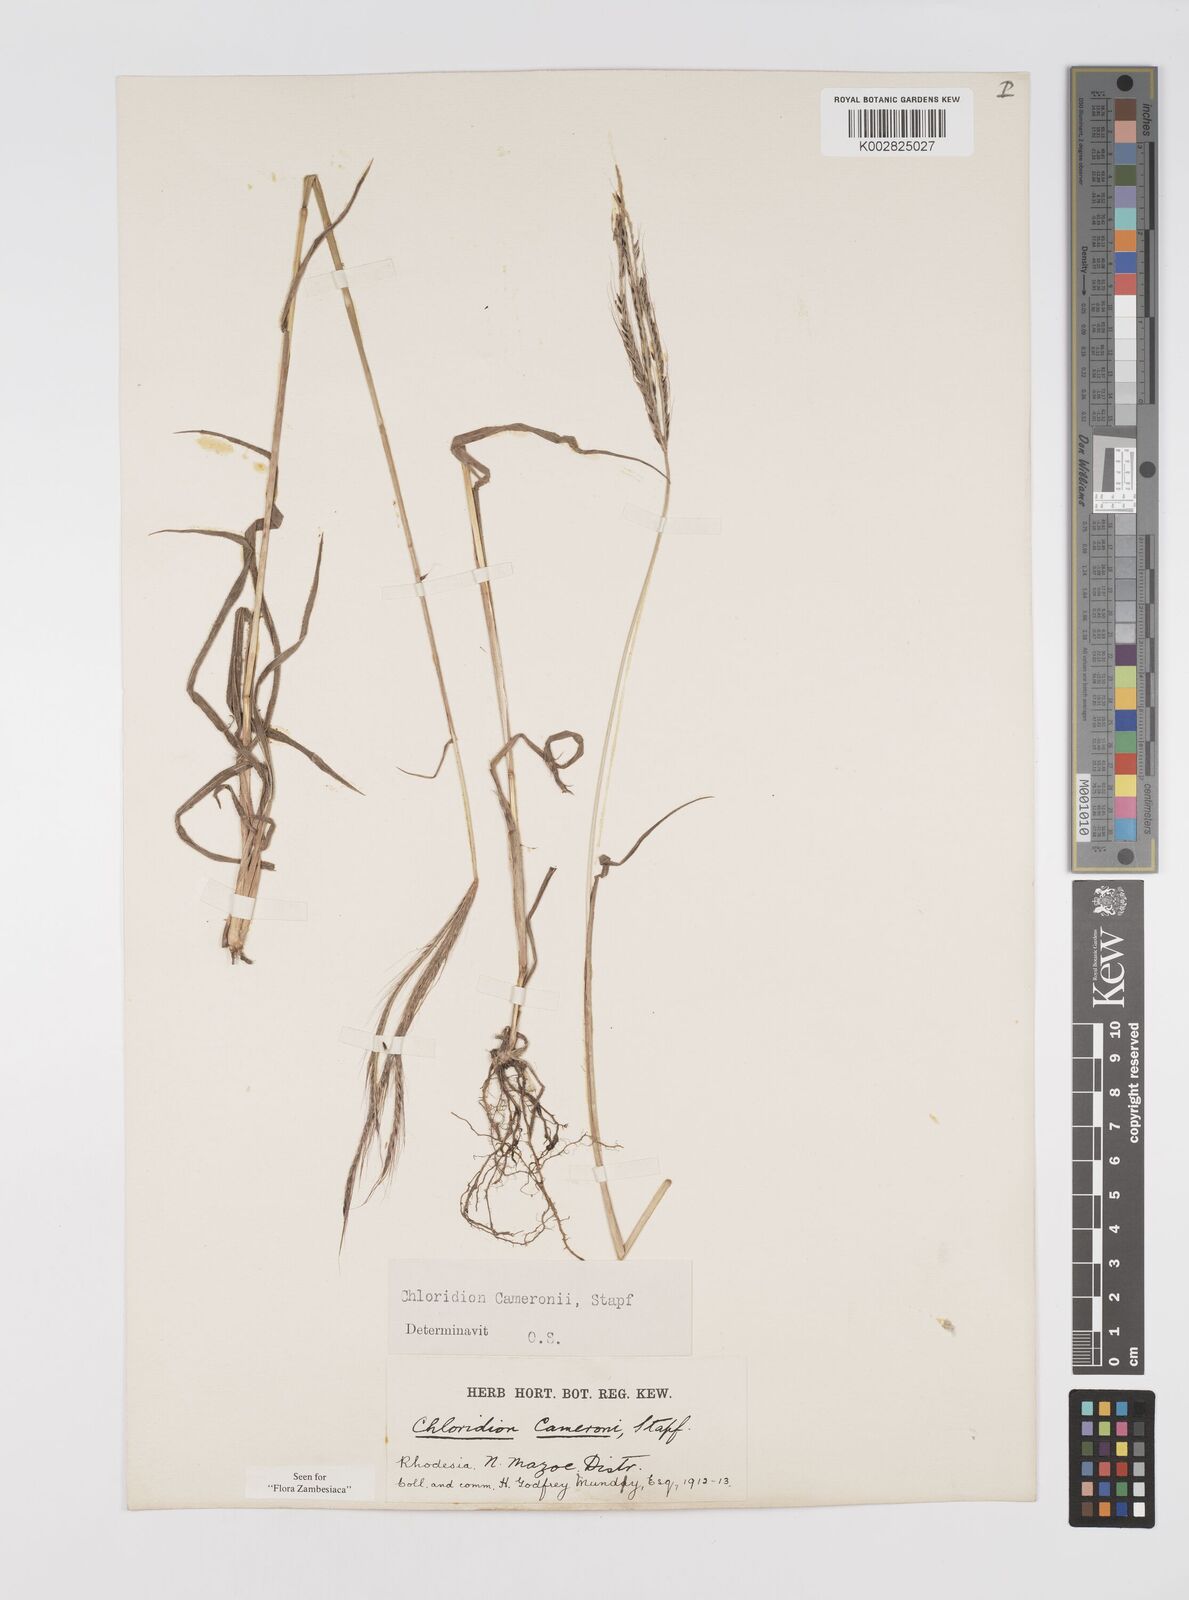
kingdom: Plantae
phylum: Tracheophyta
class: Liliopsida
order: Poales
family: Poaceae
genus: Stereochlaena
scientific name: Stereochlaena cameronii
